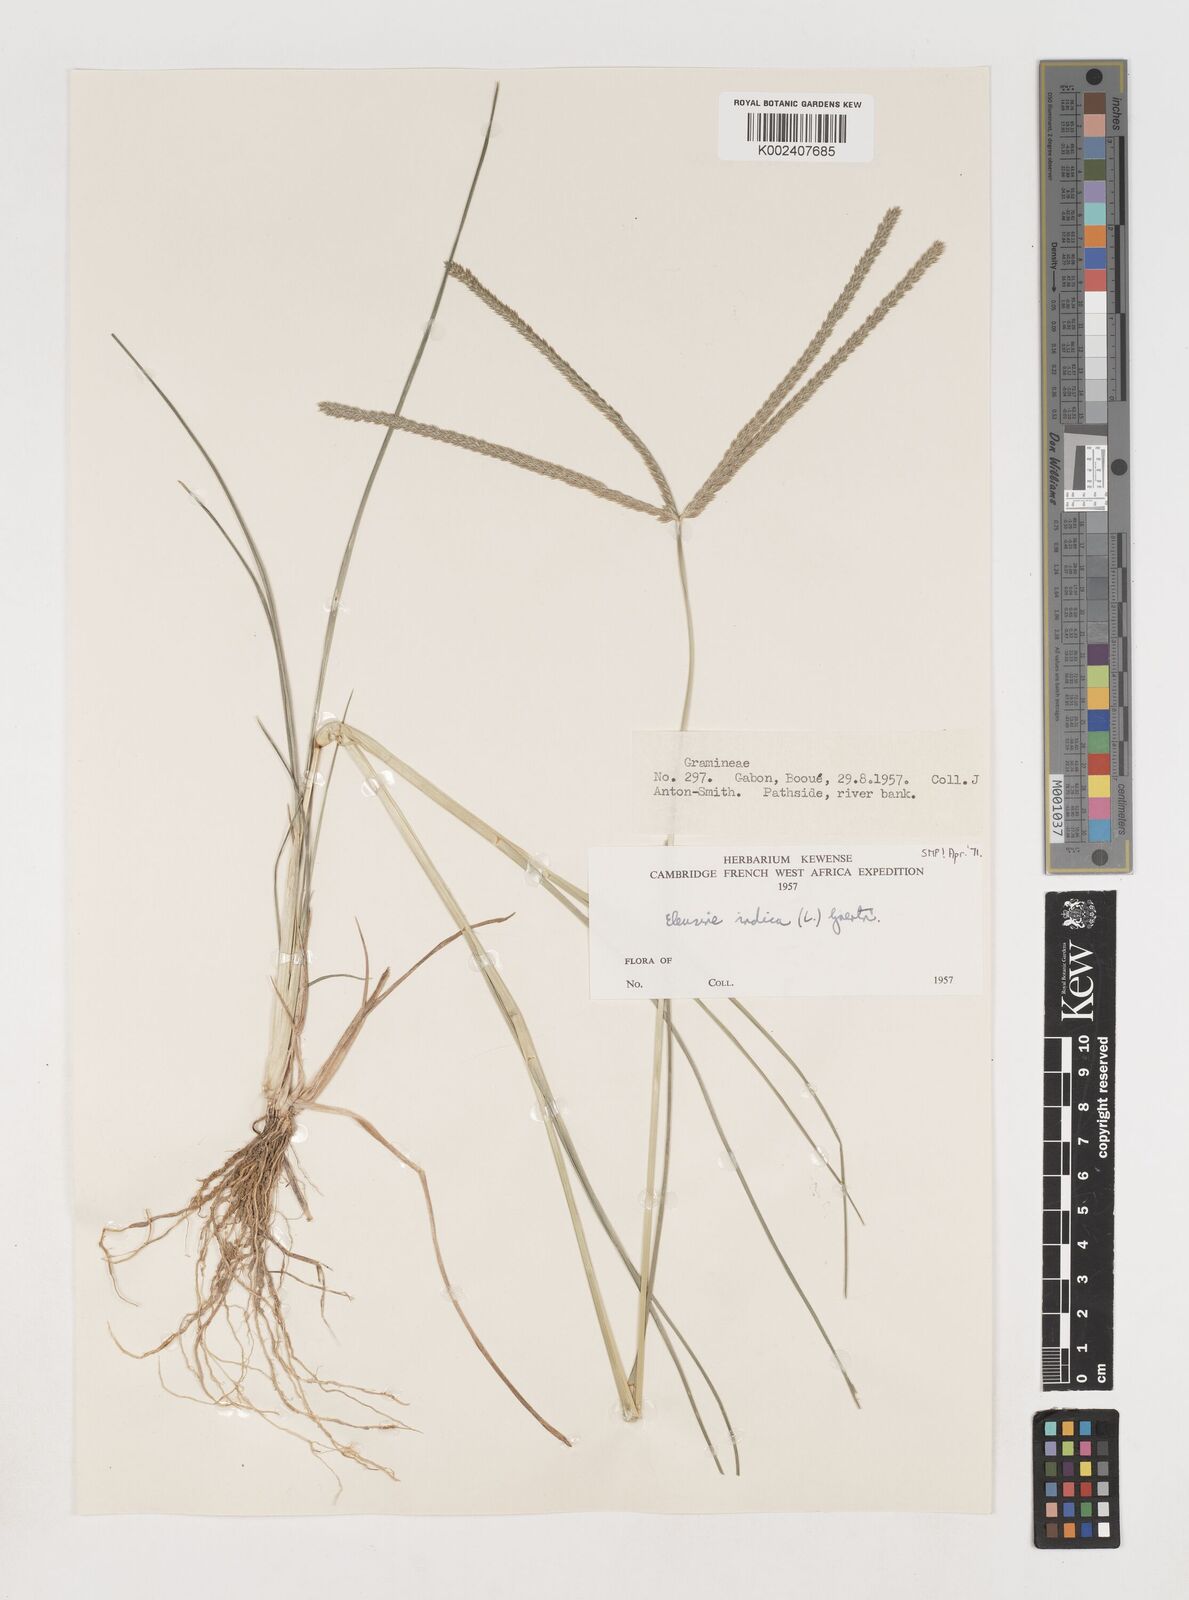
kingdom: Plantae
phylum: Tracheophyta
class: Liliopsida
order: Poales
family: Poaceae
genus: Eleusine
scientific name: Eleusine indica
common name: Yard-grass
